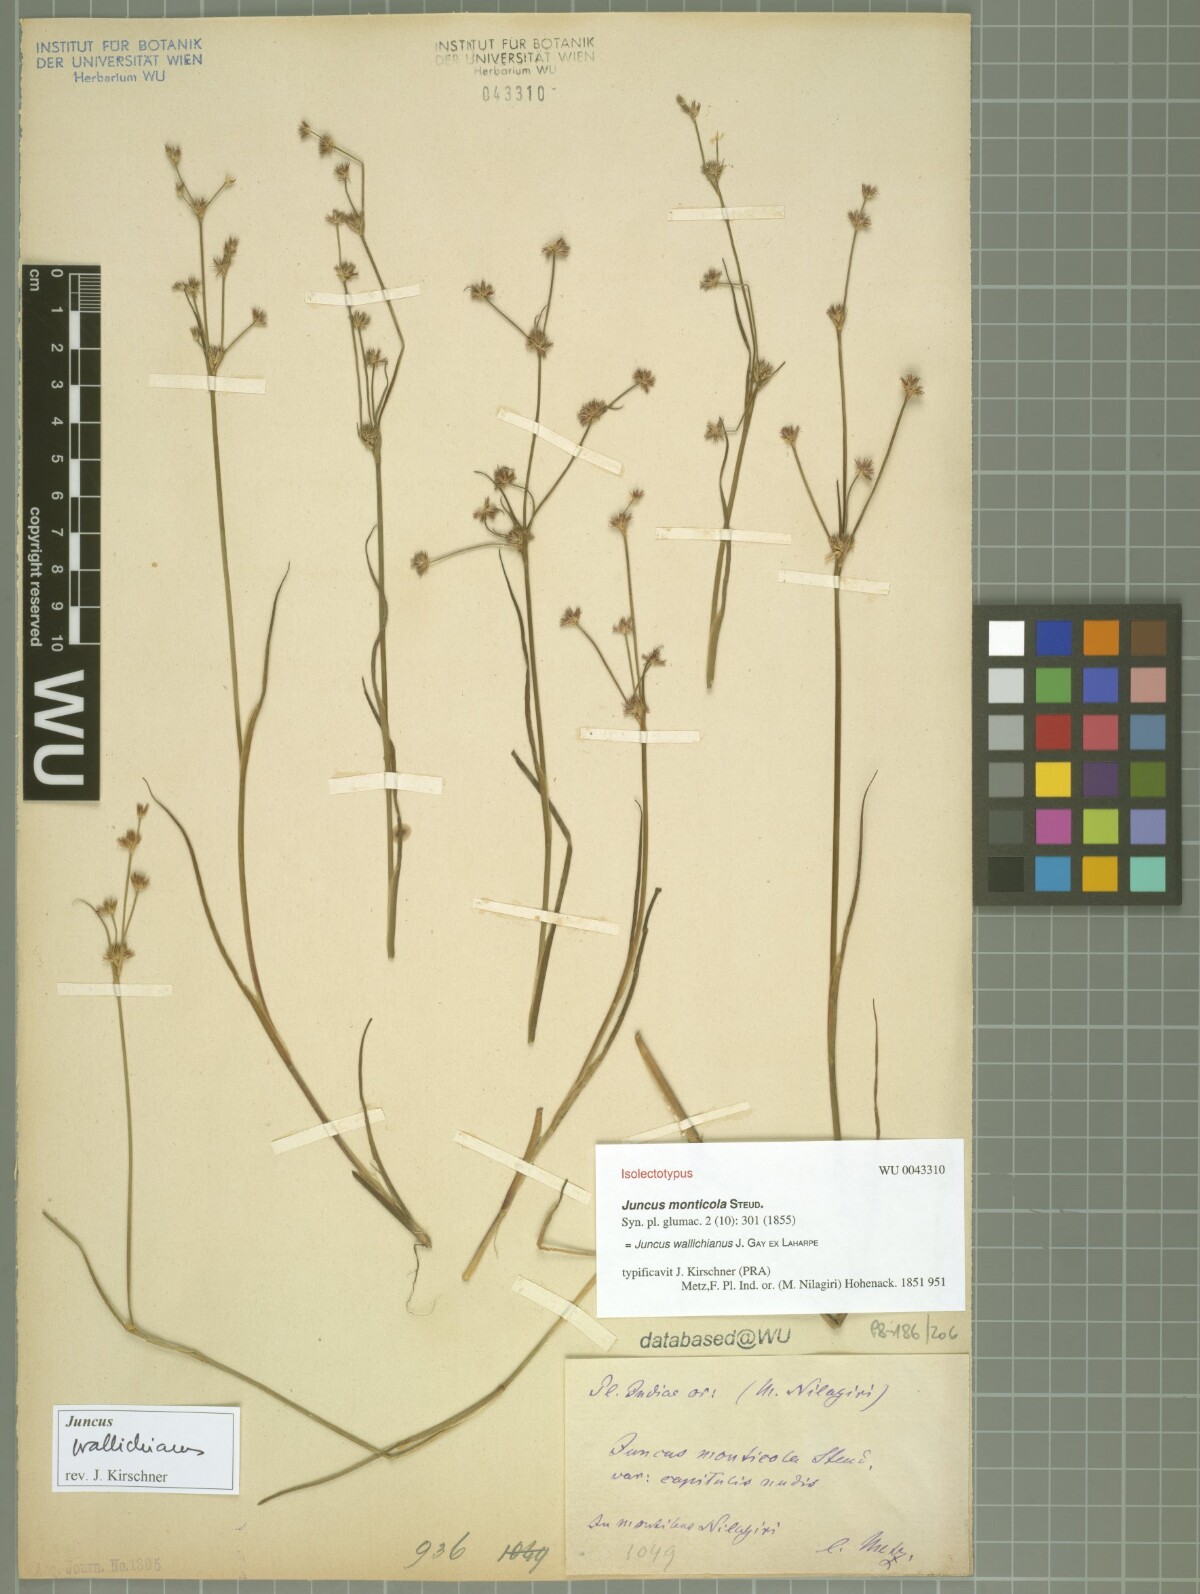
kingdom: Plantae
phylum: Tracheophyta
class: Liliopsida
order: Poales
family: Juncaceae
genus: Juncus
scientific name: Juncus wallichianus
